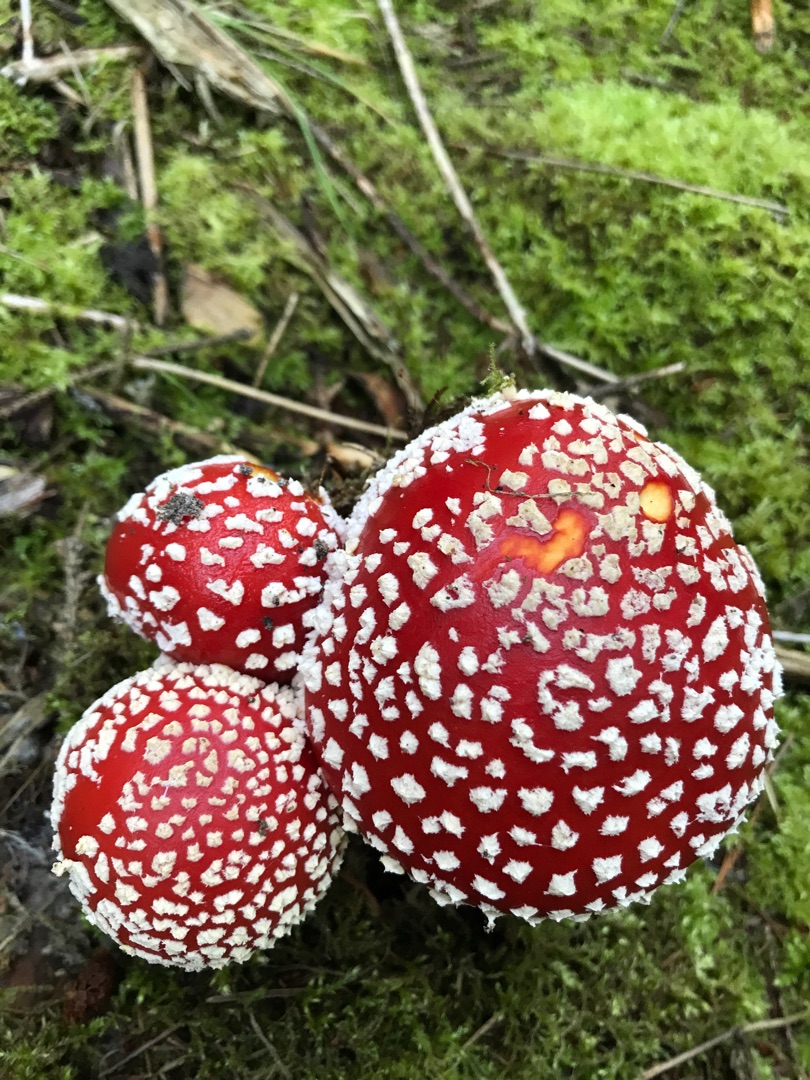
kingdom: Fungi
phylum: Basidiomycota
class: Agaricomycetes
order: Agaricales
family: Amanitaceae
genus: Amanita
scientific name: Amanita muscaria
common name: Rød fluesvamp
